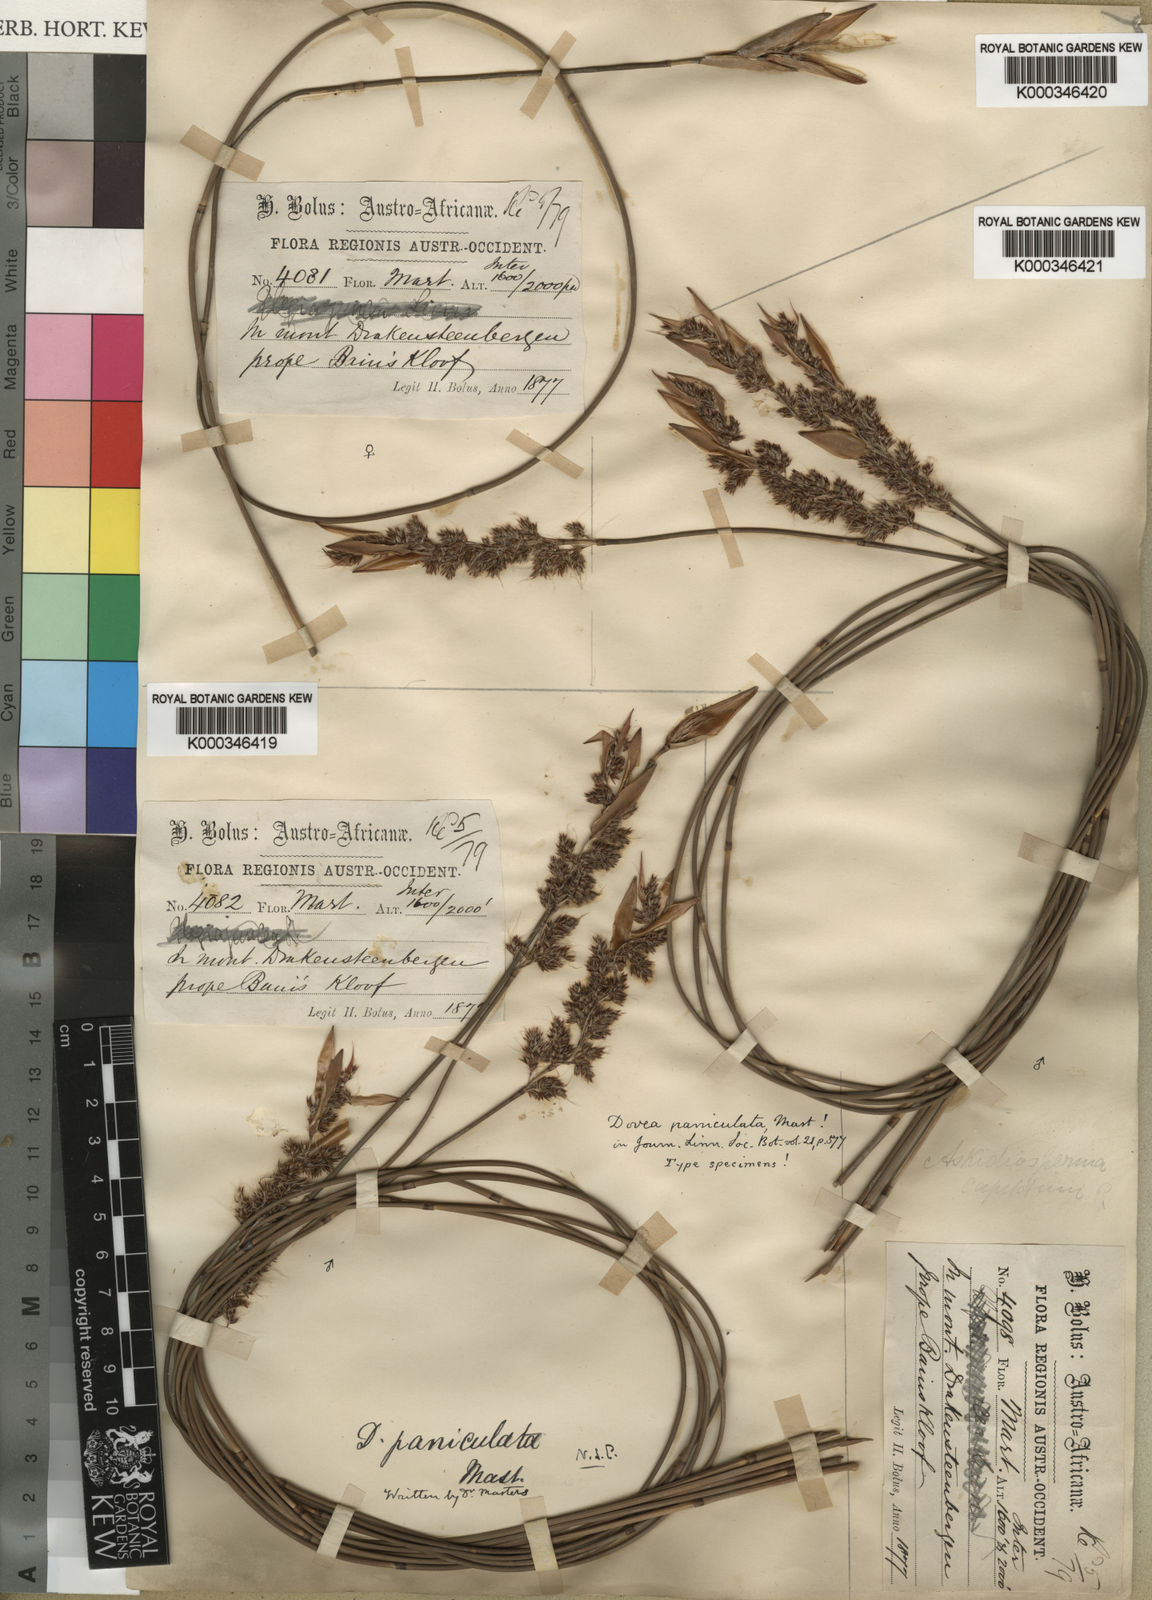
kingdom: Plantae
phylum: Tracheophyta
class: Liliopsida
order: Poales
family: Restionaceae
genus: Askidiosperma
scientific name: Askidiosperma paniculatum
